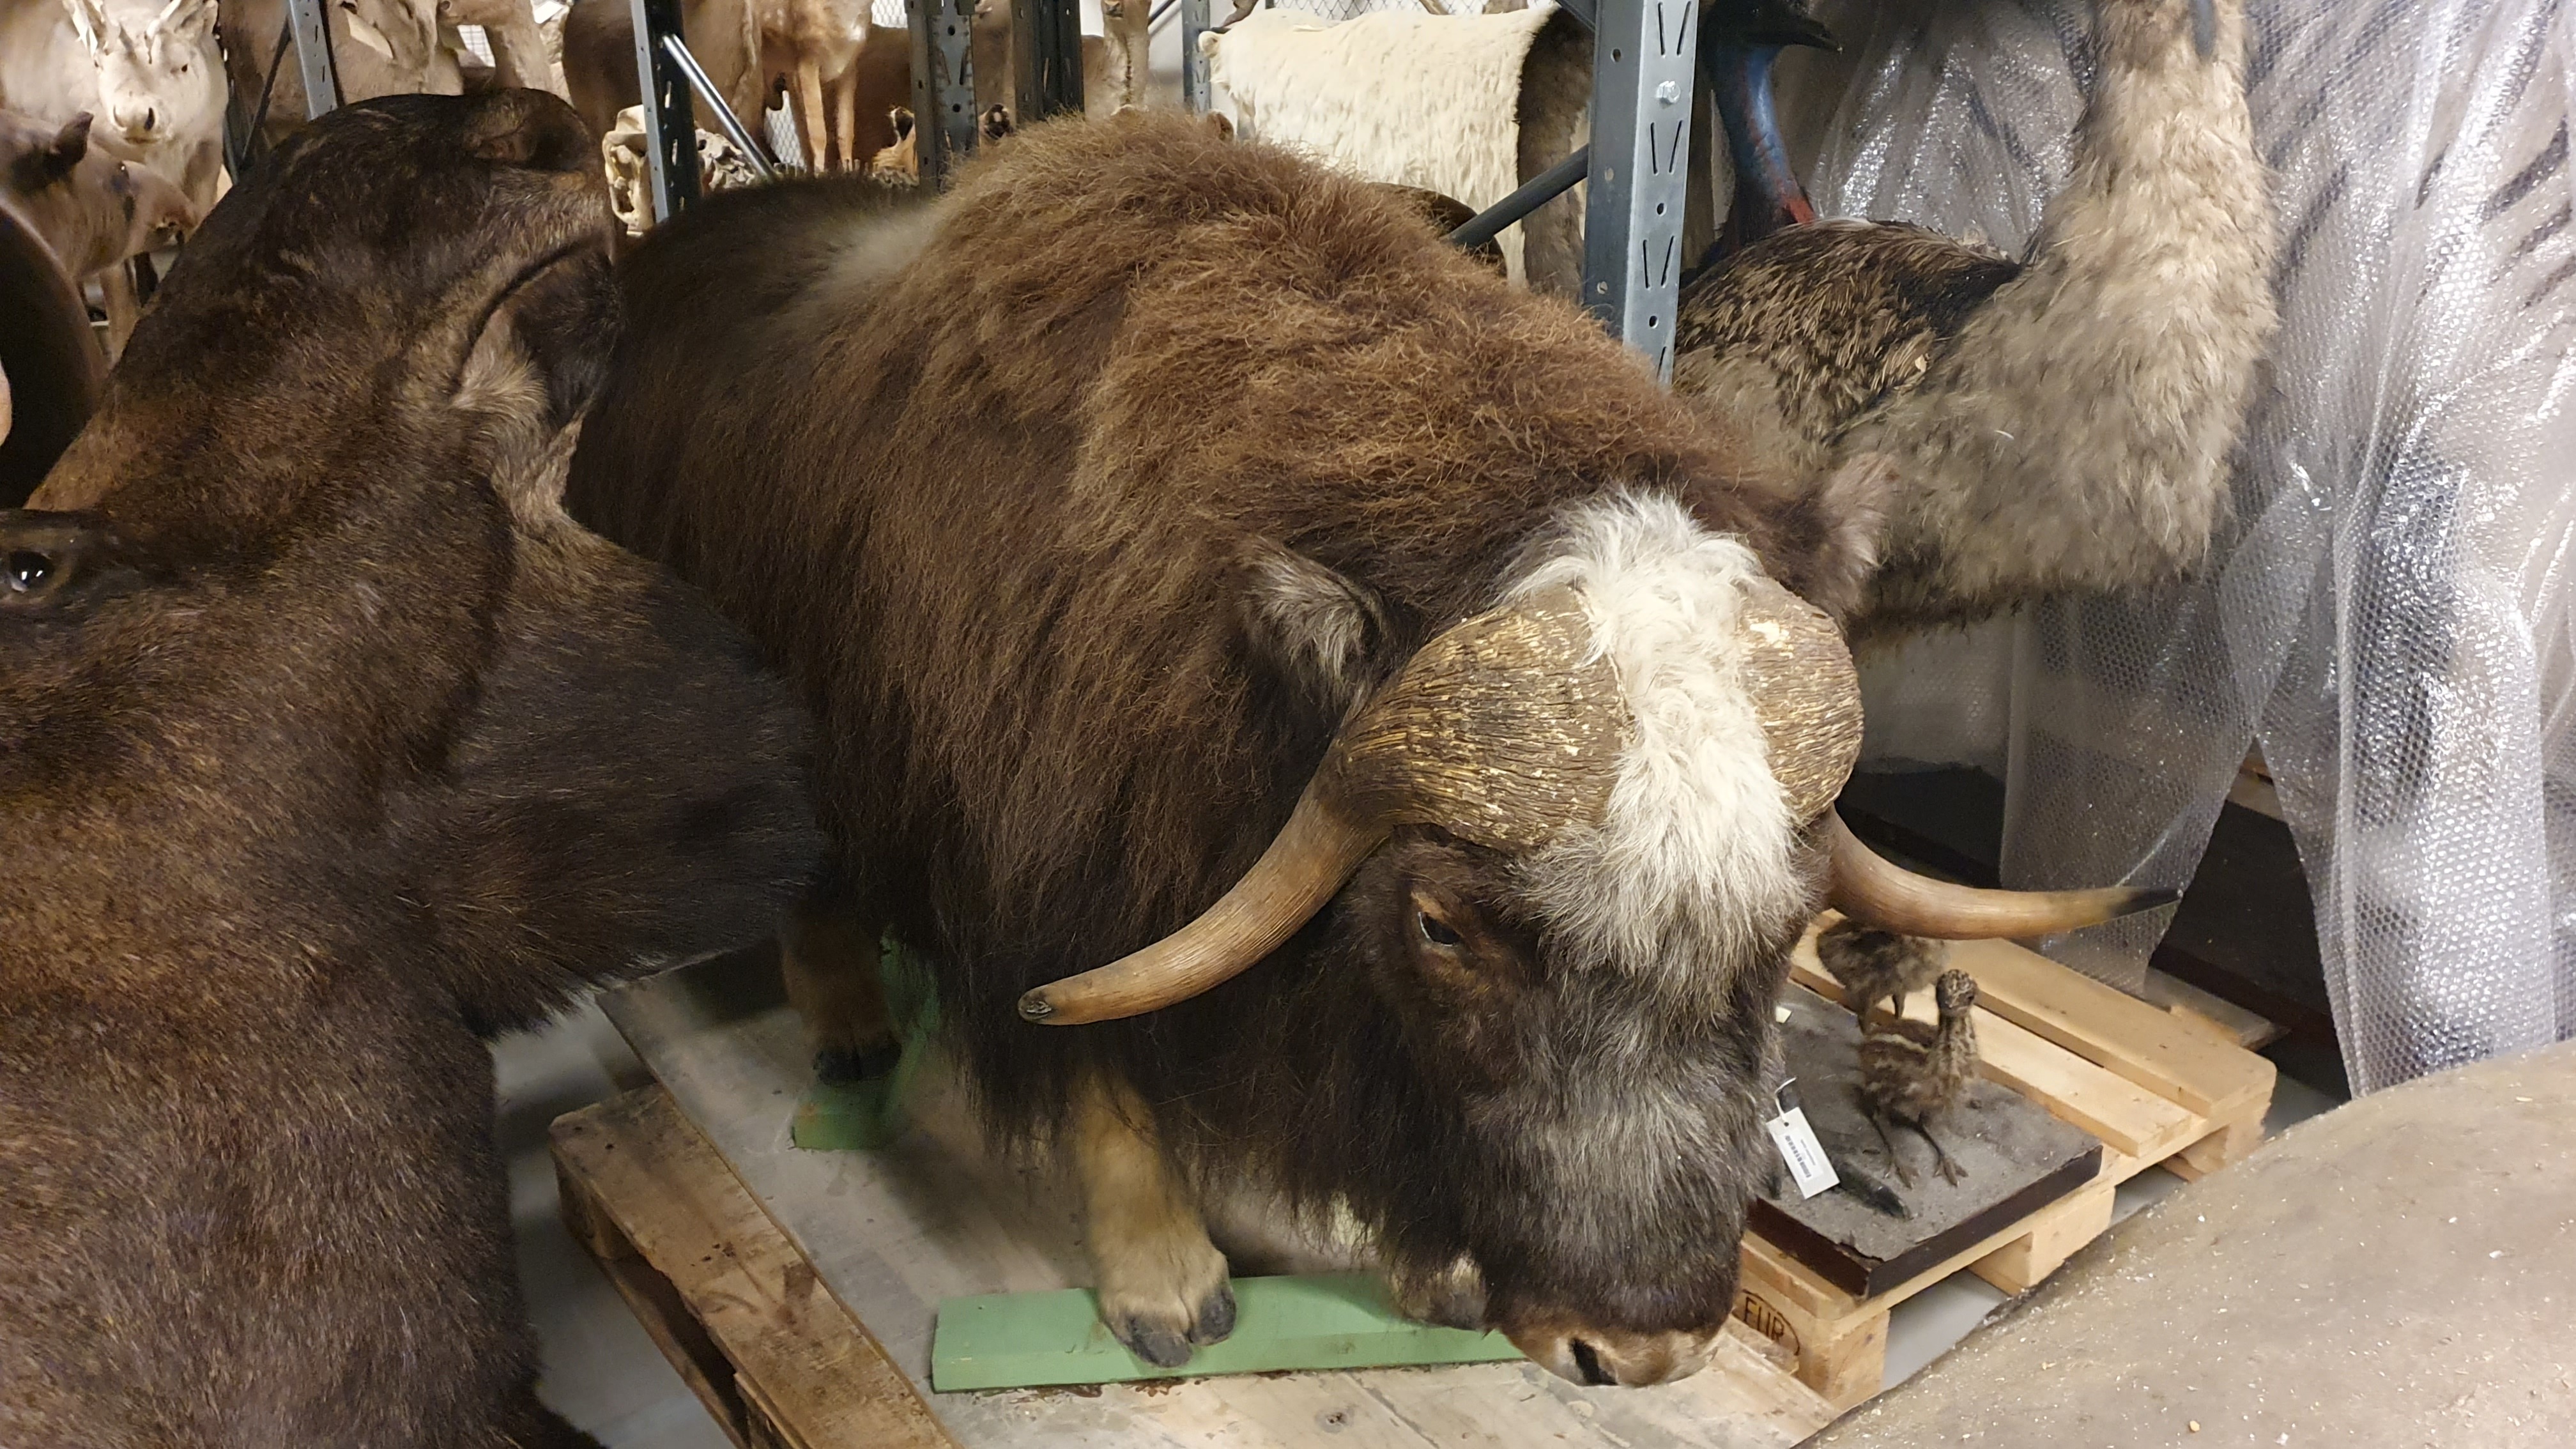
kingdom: Animalia
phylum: Chordata
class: Mammalia
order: Artiodactyla
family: Bovidae
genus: Ovibos
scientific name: Ovibos moschatus
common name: Muskox
